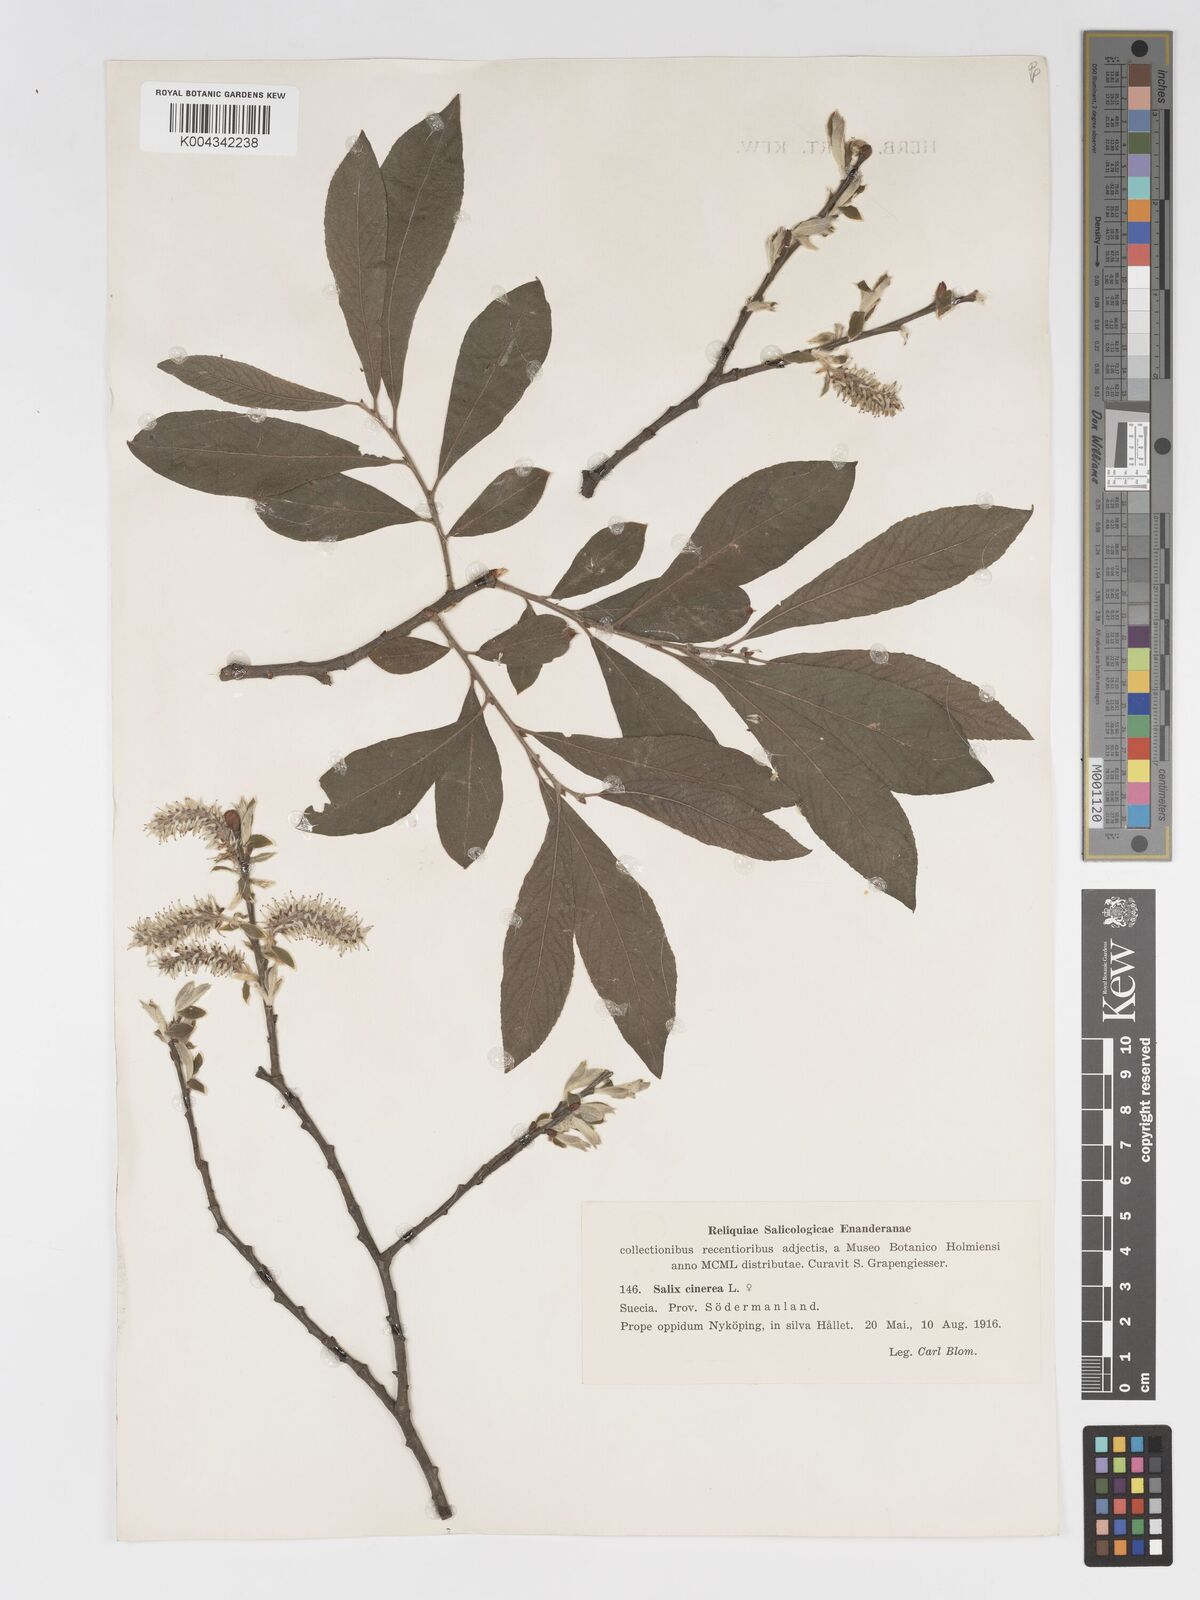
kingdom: Plantae
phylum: Tracheophyta
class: Magnoliopsida
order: Malpighiales
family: Salicaceae
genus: Salix
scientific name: Salix
